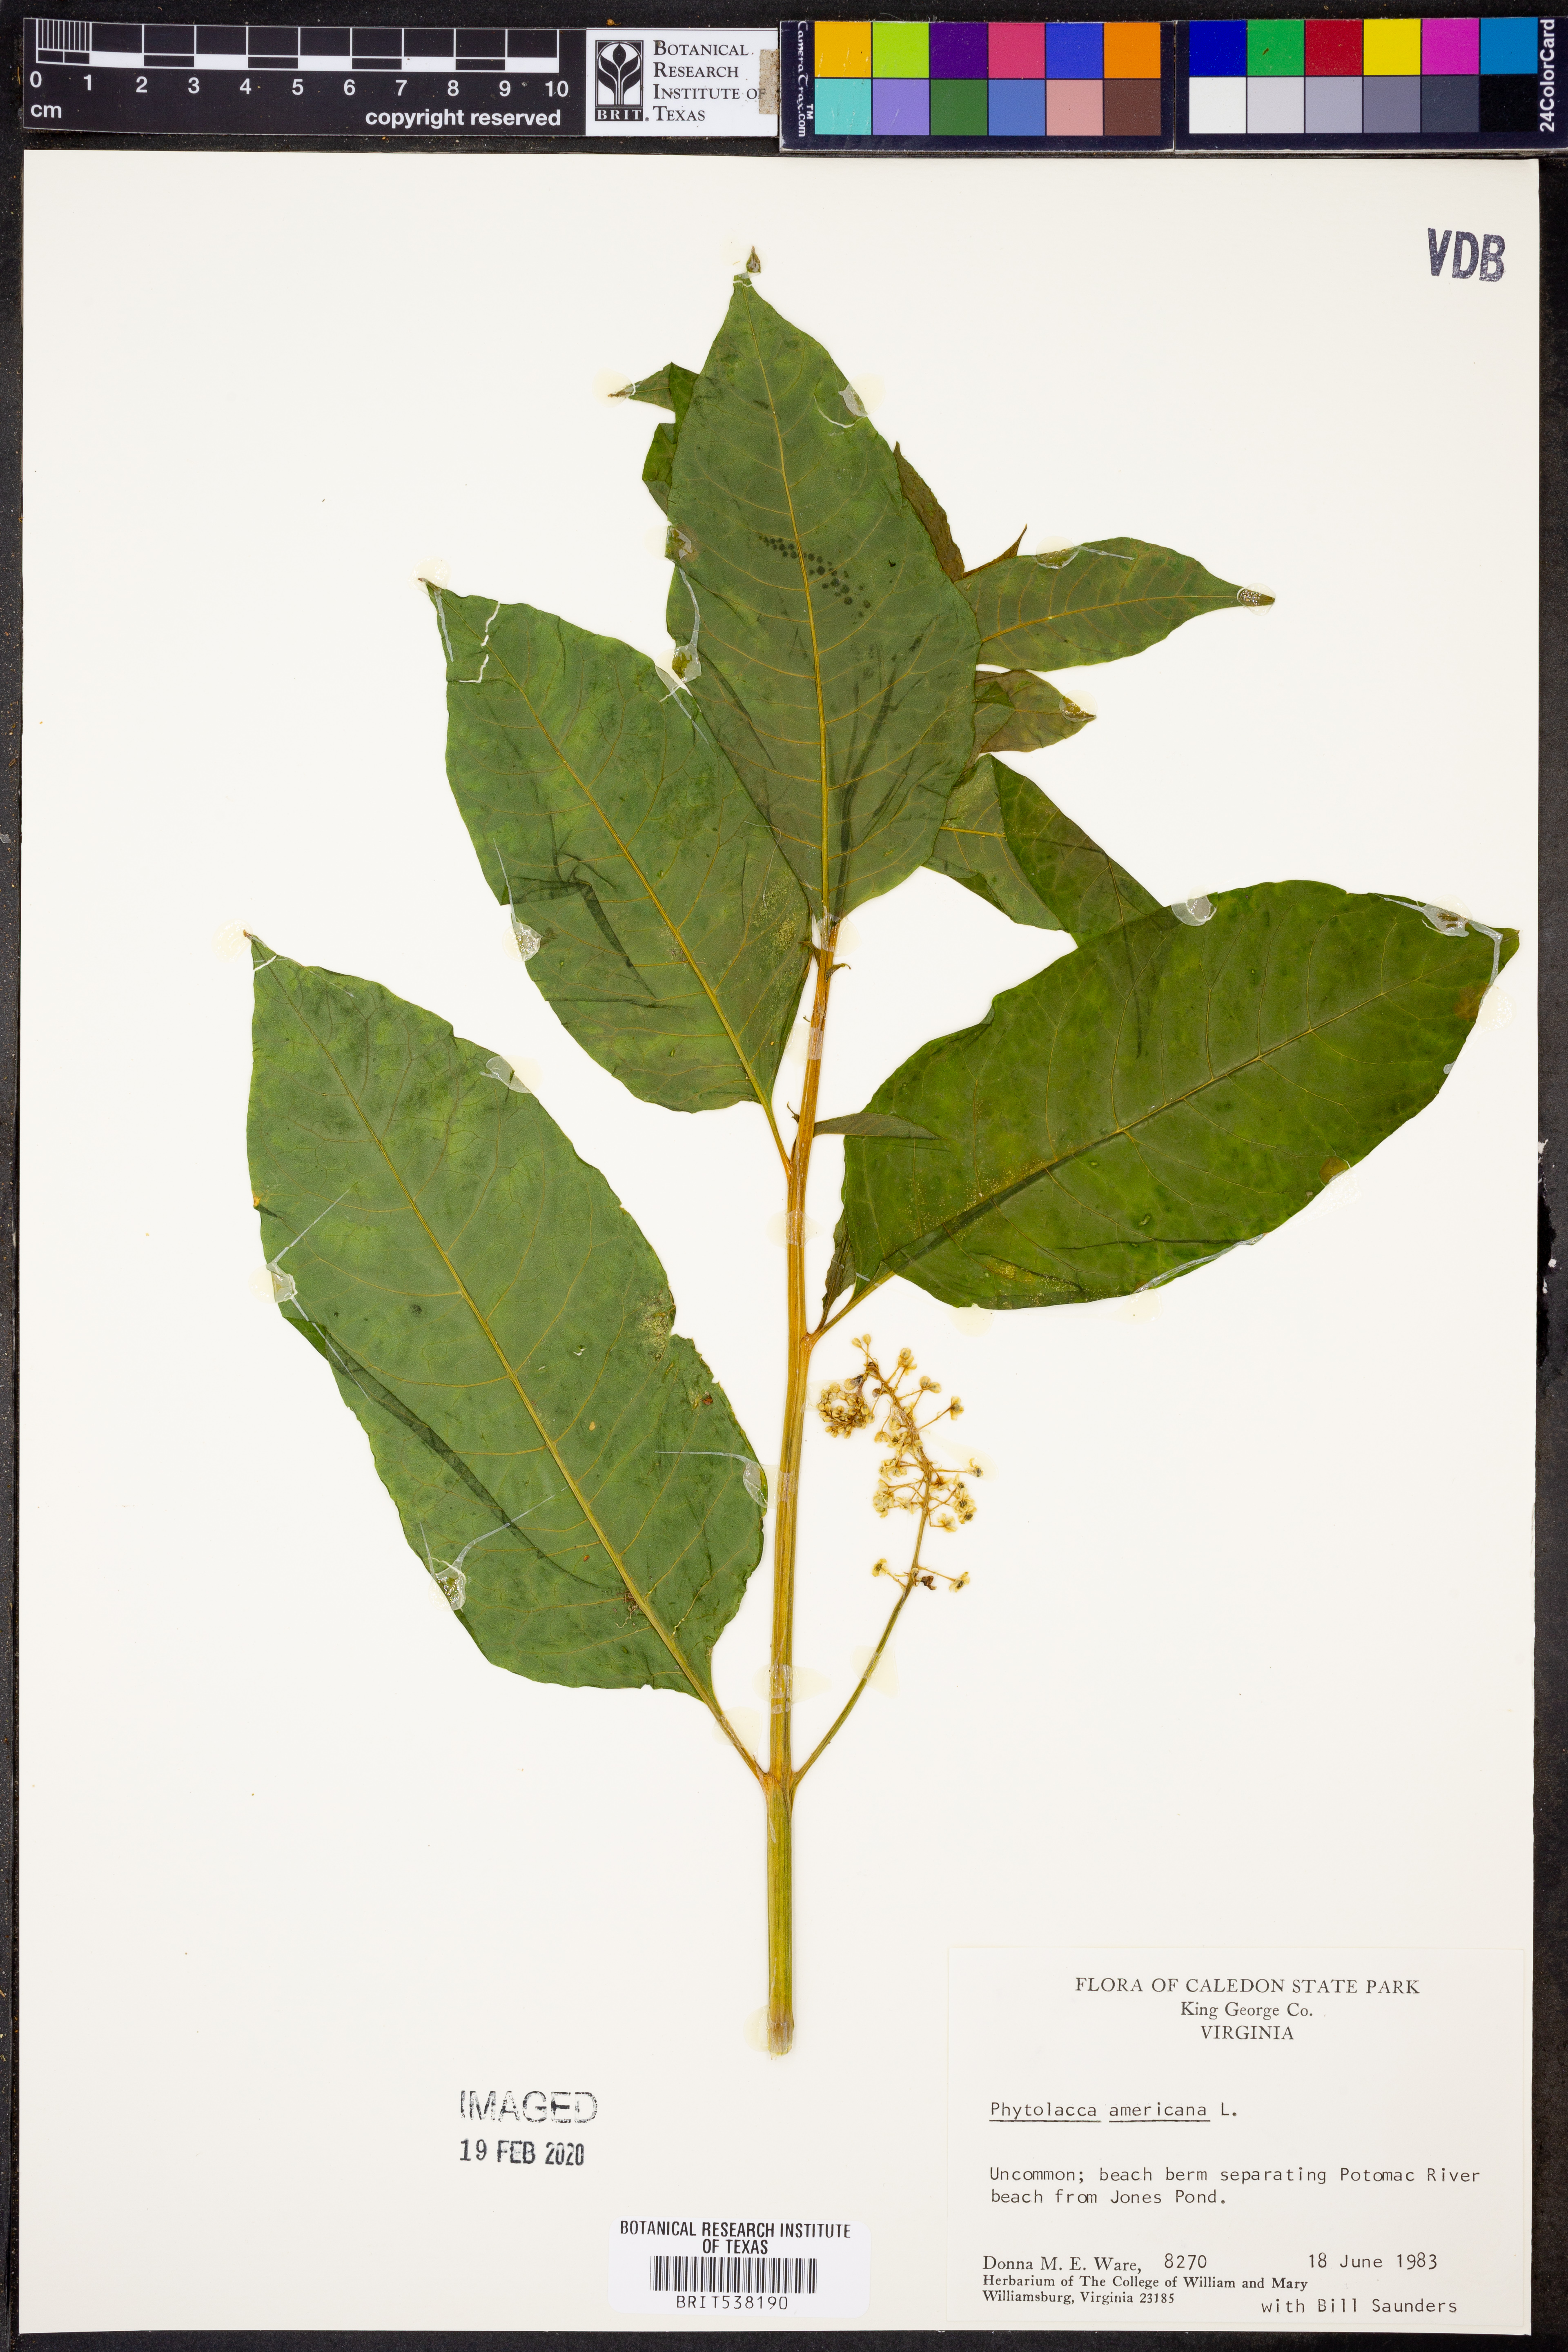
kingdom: Plantae
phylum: Tracheophyta
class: Magnoliopsida
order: Caryophyllales
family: Phytolaccaceae
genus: Phytolacca
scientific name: Phytolacca americana
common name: American pokeweed
